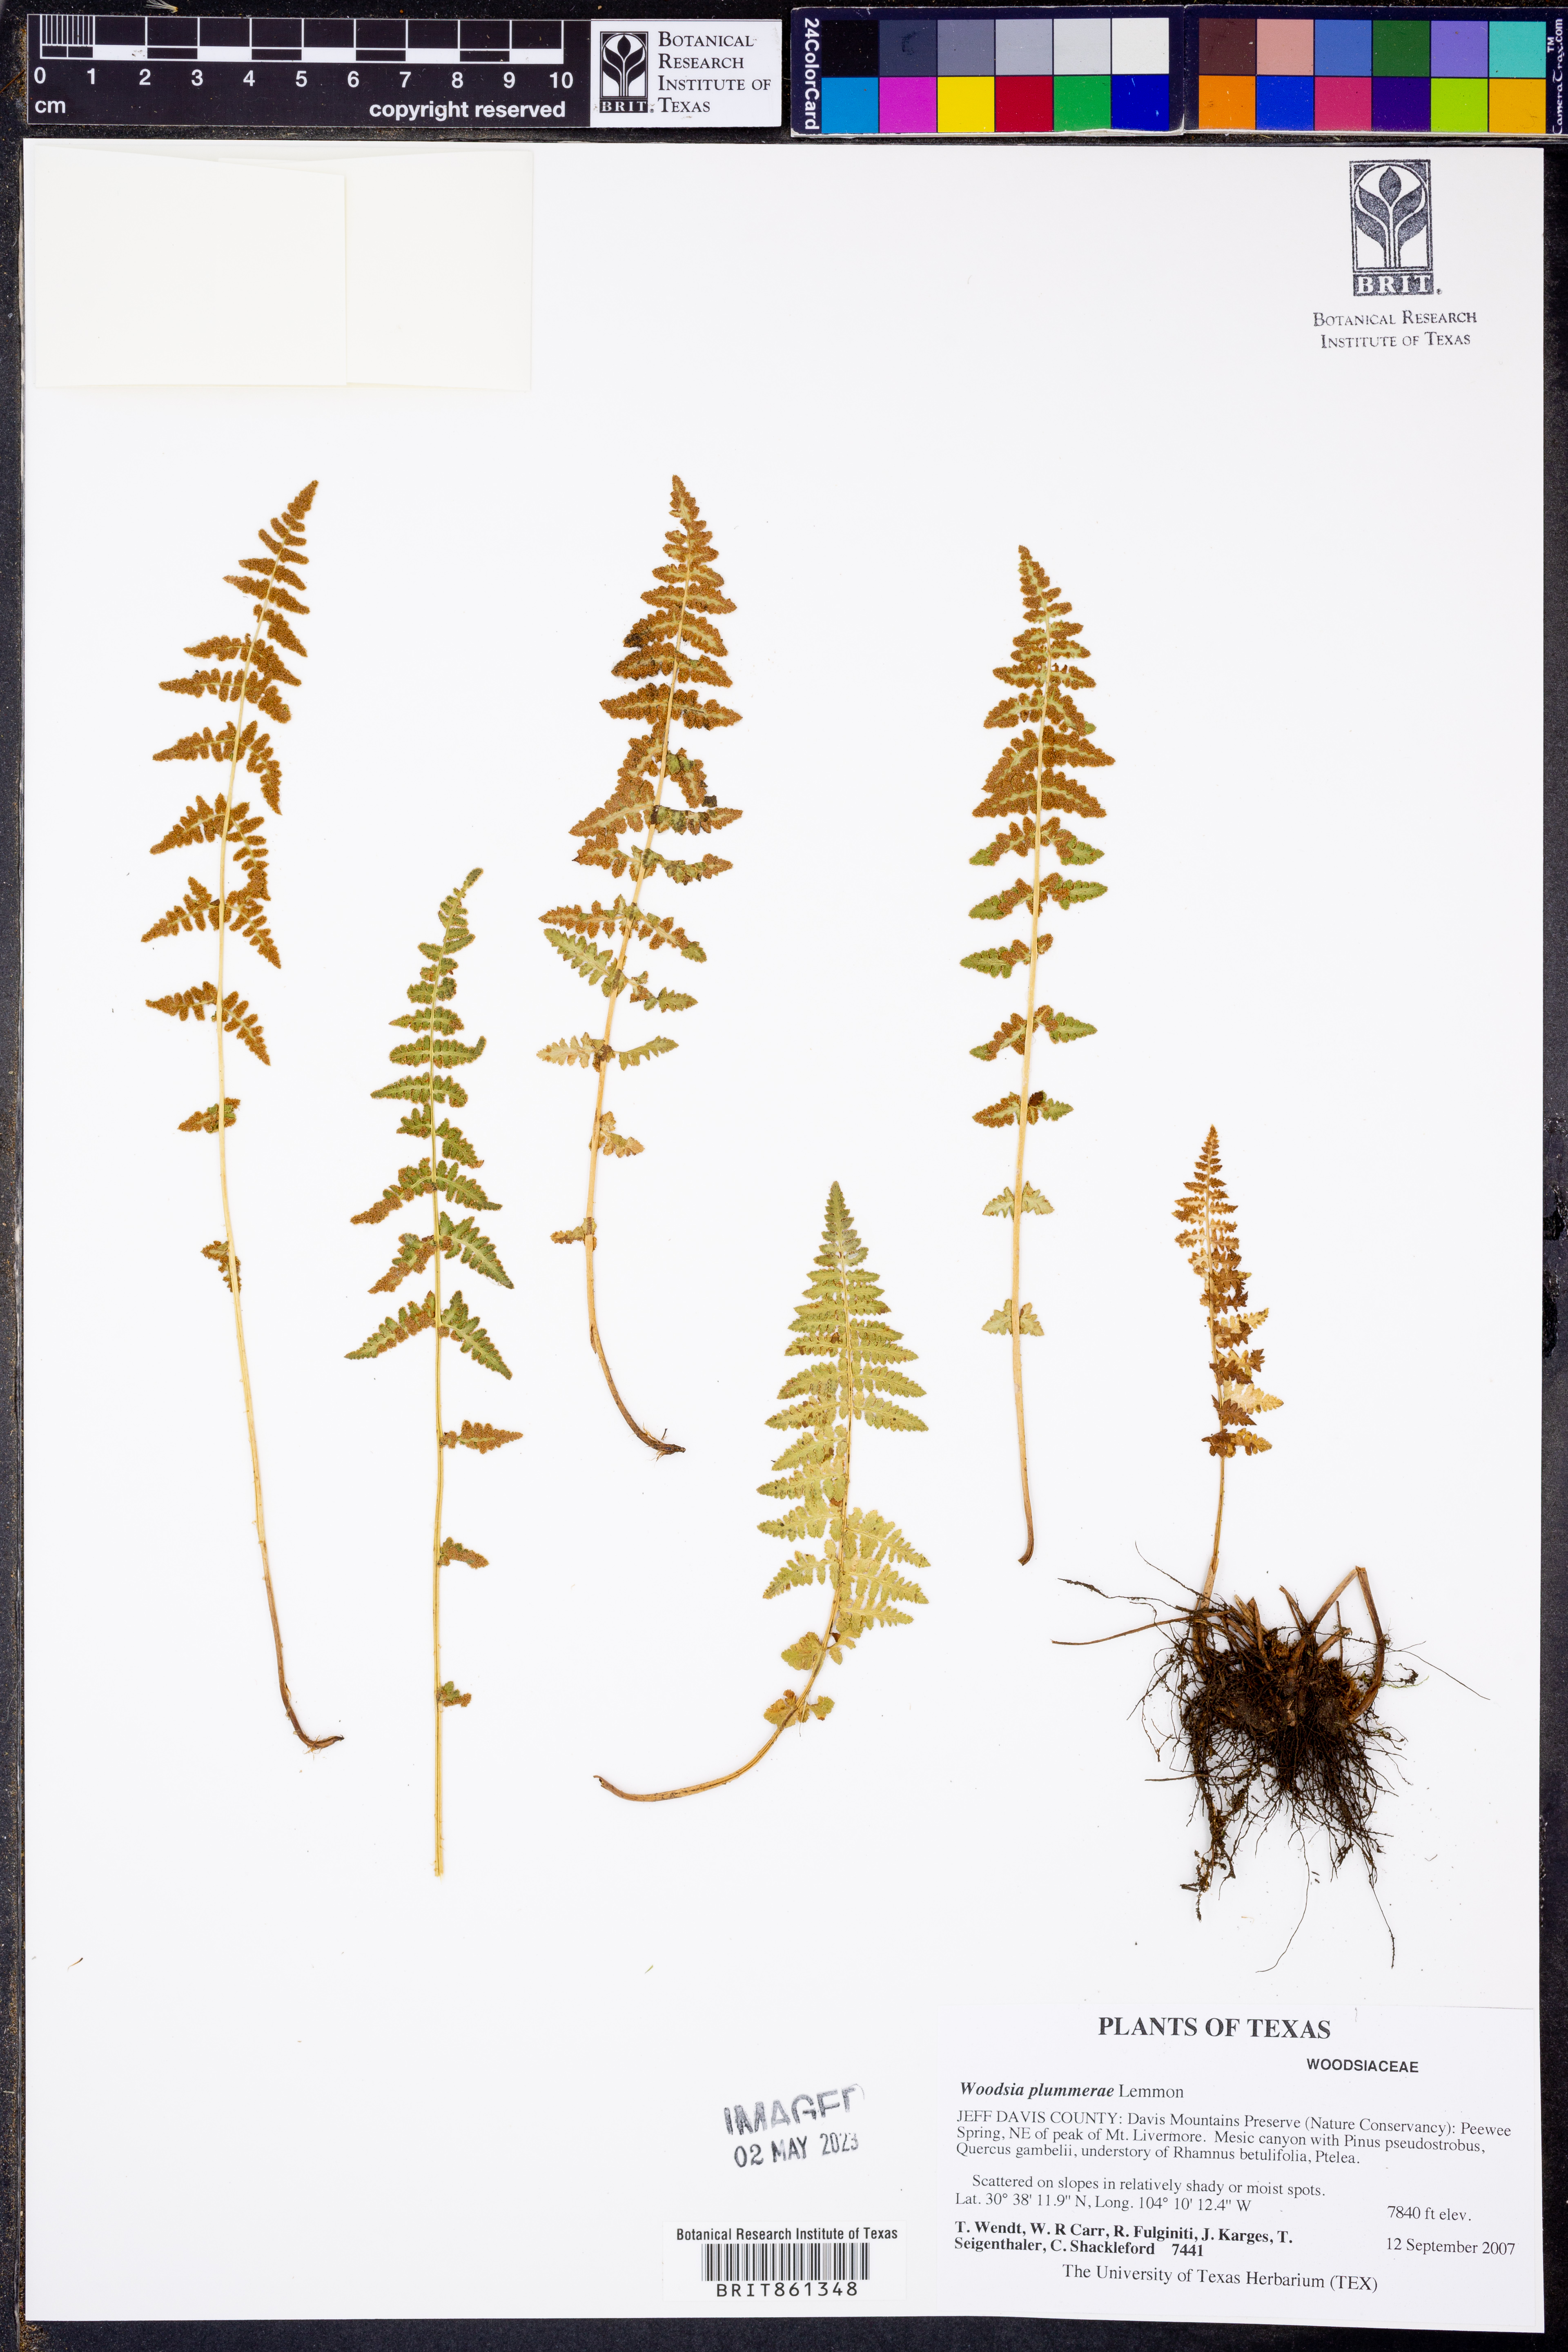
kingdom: Plantae
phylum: Tracheophyta
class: Polypodiopsida
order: Polypodiales
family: Woodsiaceae
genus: Physematium
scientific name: Physematium plummerae
